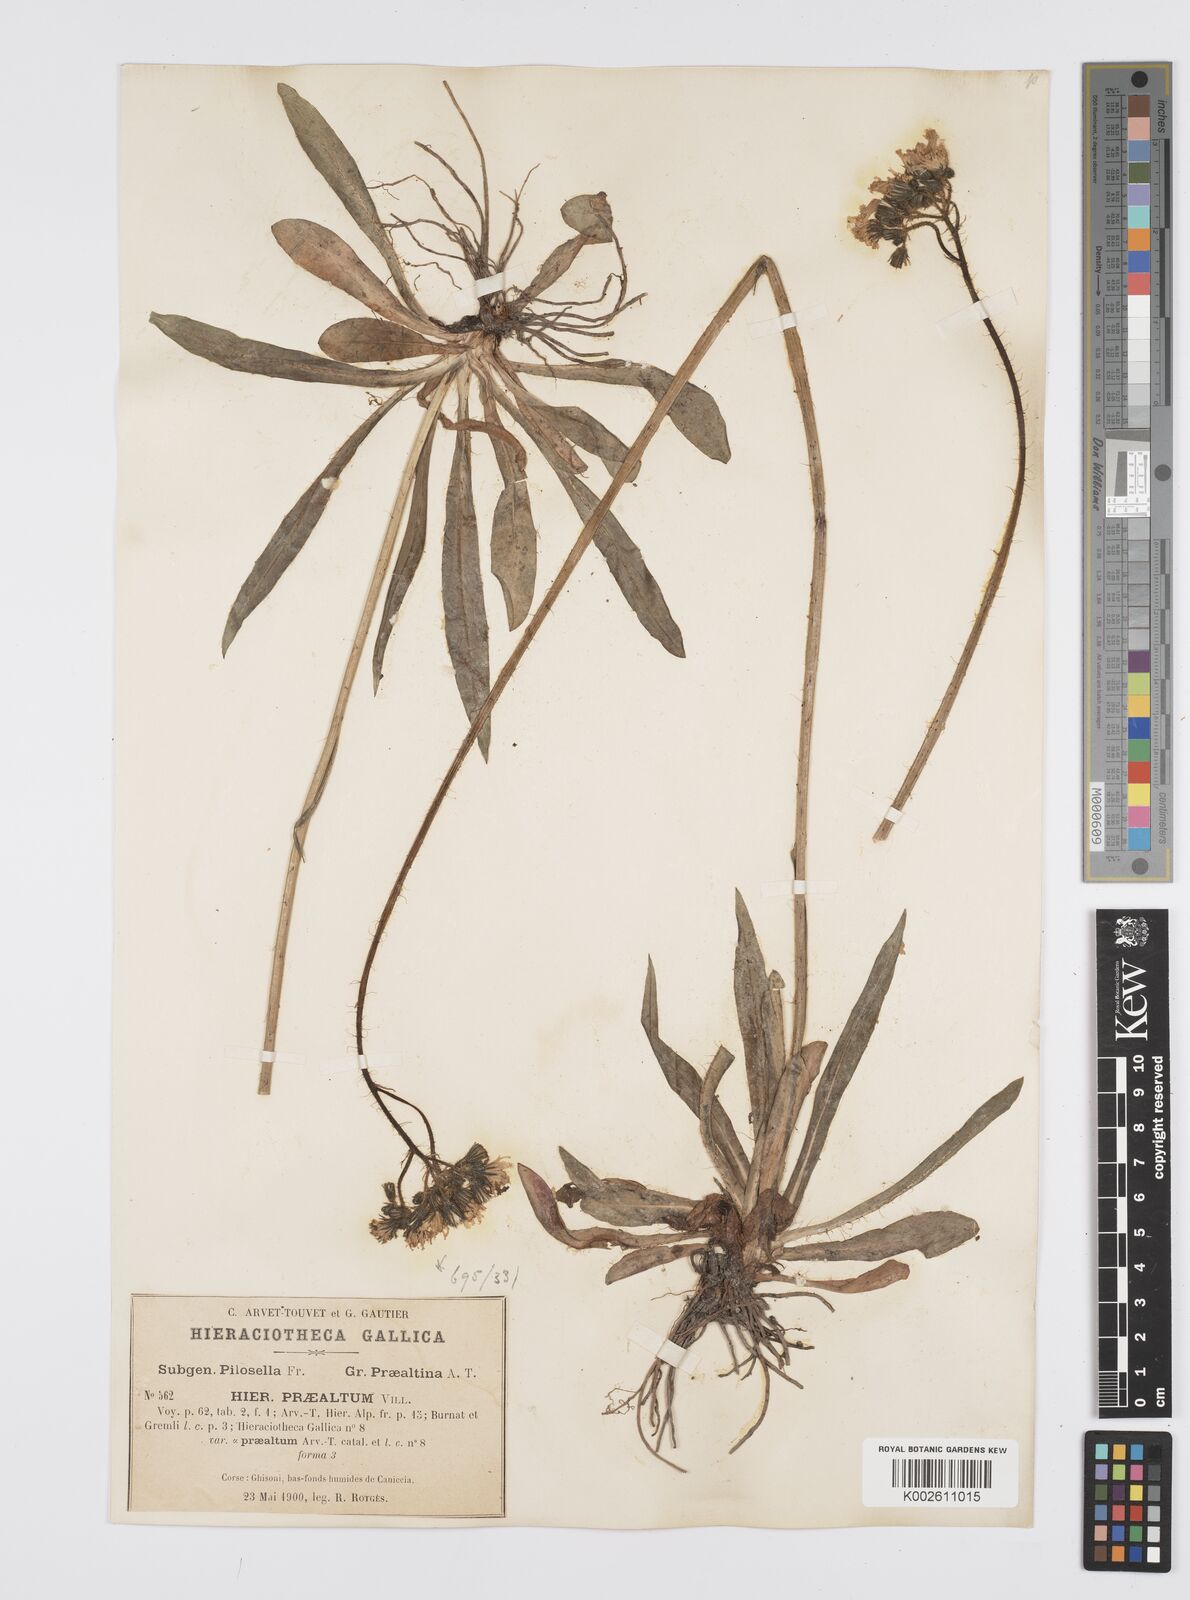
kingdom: Plantae
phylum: Tracheophyta
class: Magnoliopsida
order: Asterales
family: Asteraceae
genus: Pilosella
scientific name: Pilosella piloselloides
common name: Glaucous king-devil
